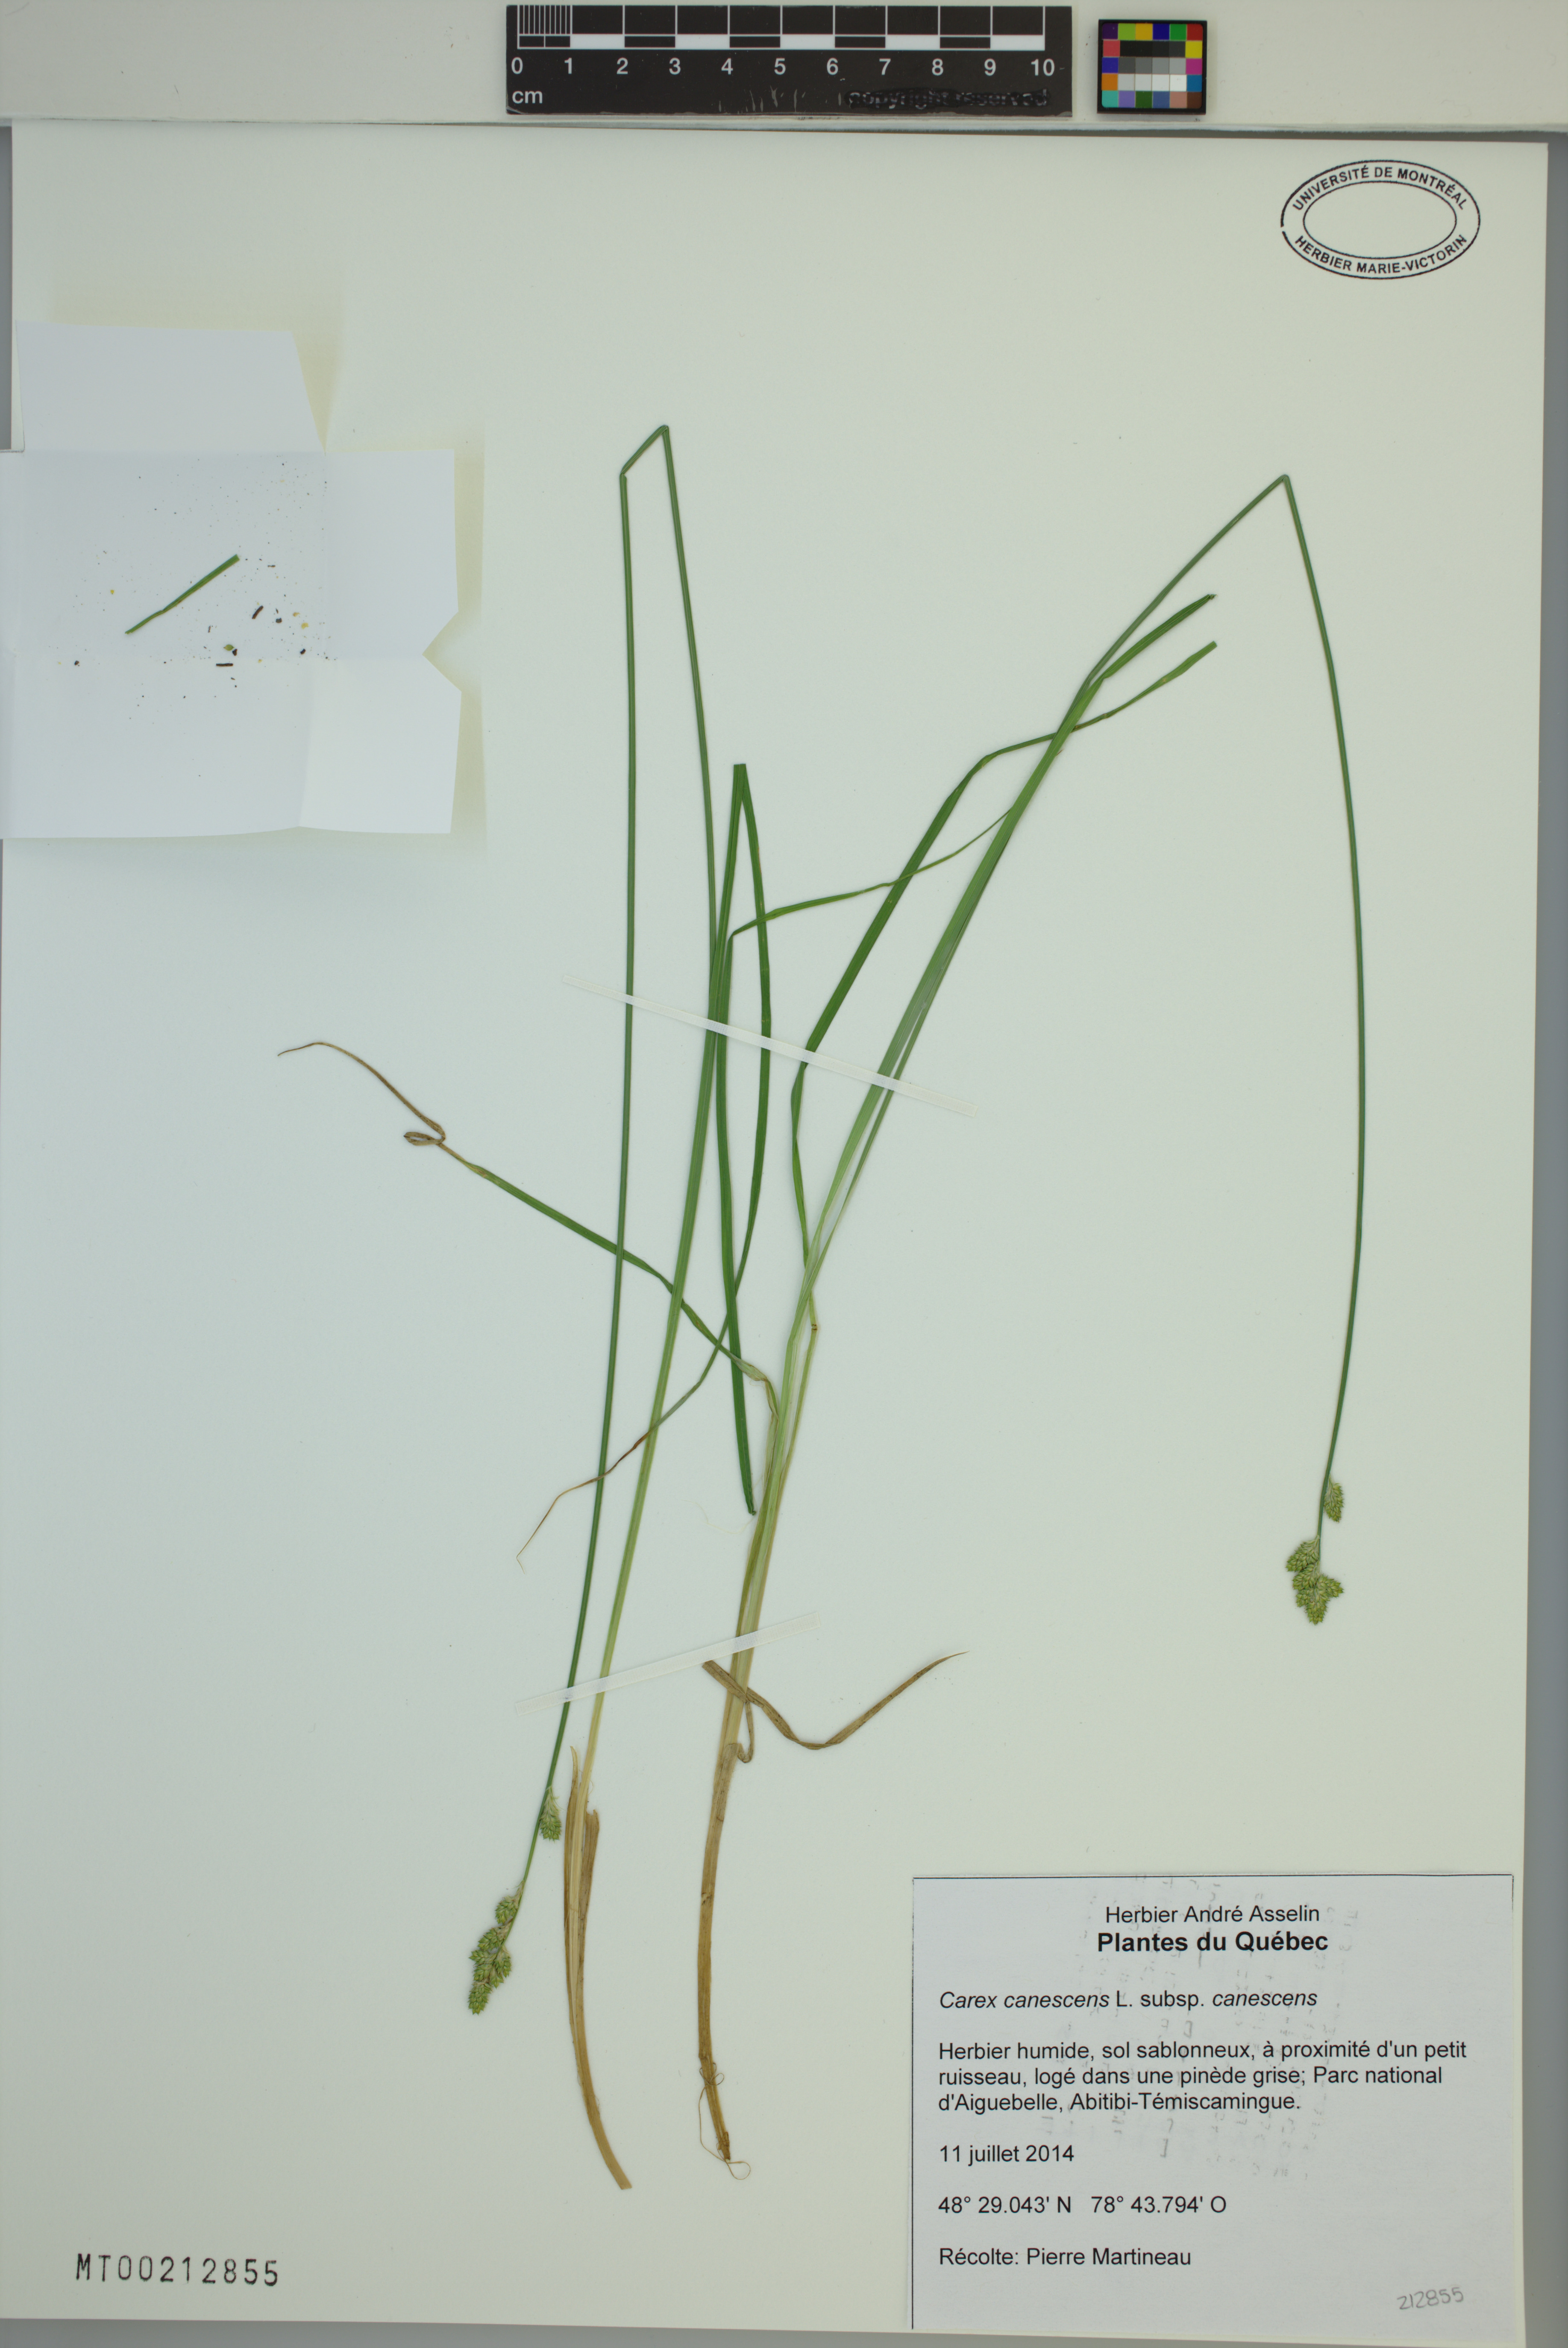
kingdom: Plantae
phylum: Tracheophyta
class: Liliopsida
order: Poales
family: Cyperaceae
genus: Carex
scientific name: Carex canescens
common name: White sedge
